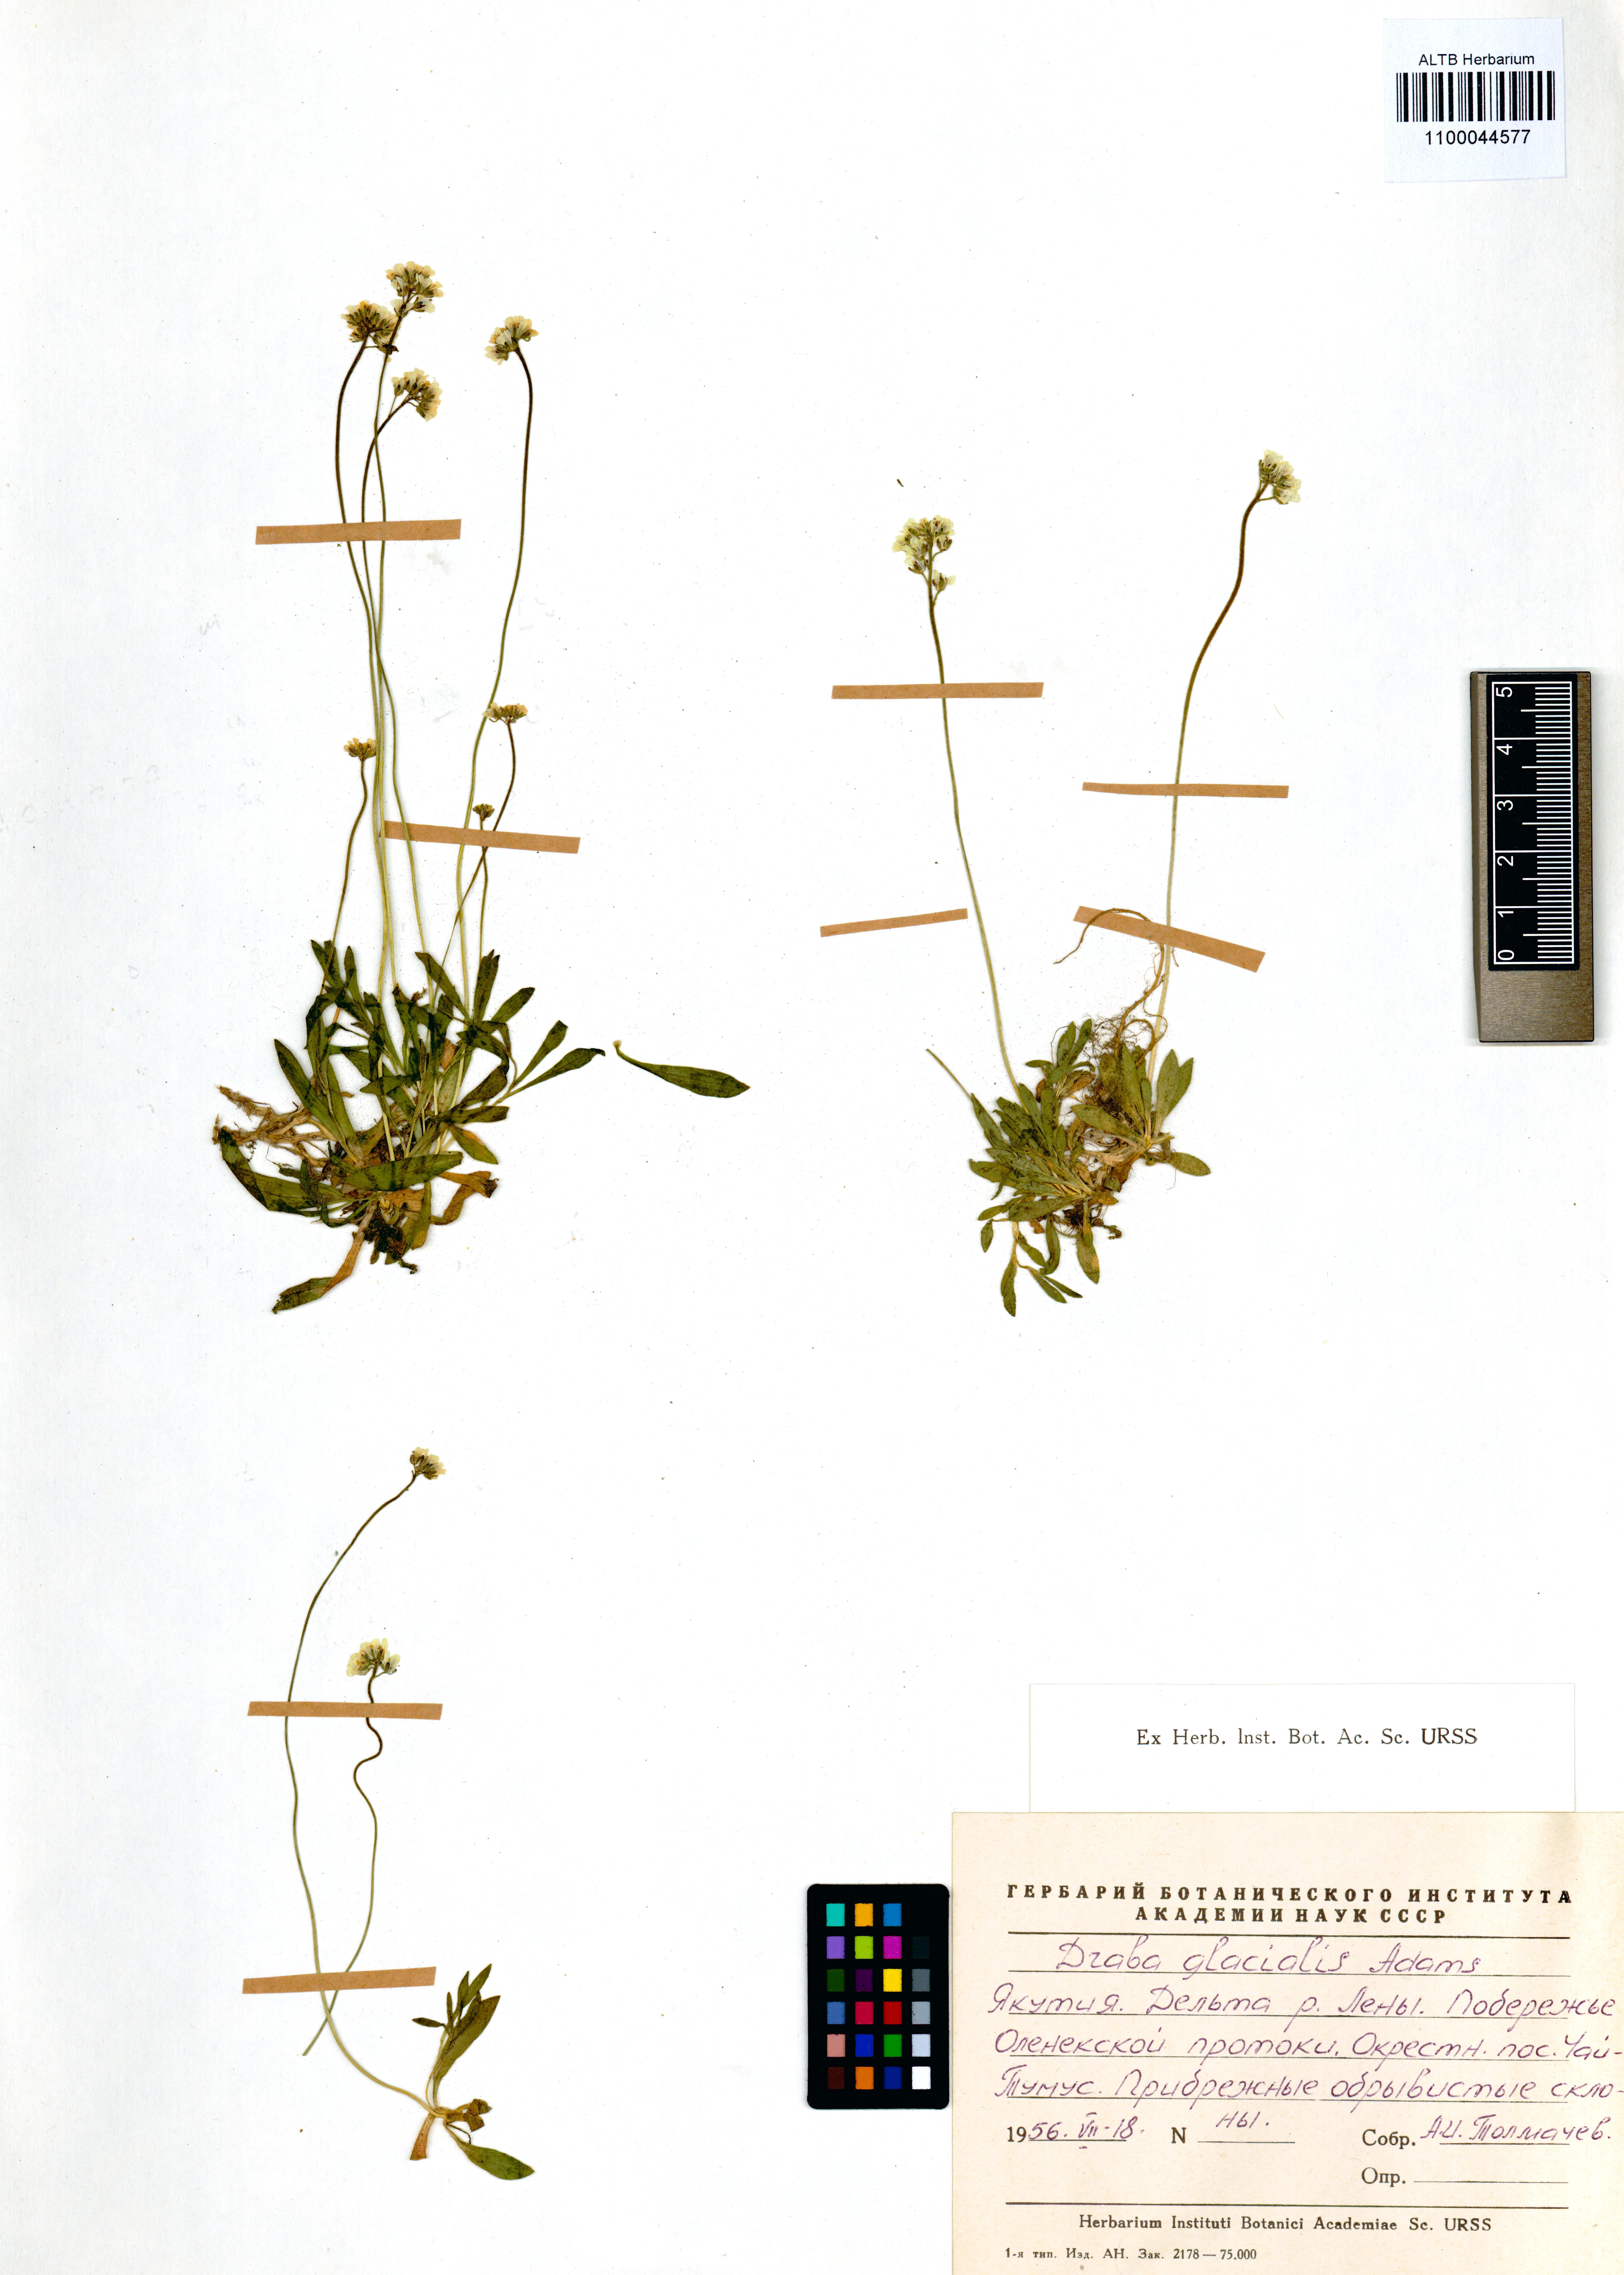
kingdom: Plantae
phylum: Tracheophyta
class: Magnoliopsida
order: Brassicales
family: Brassicaceae
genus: Draba
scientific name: Draba glacialis
